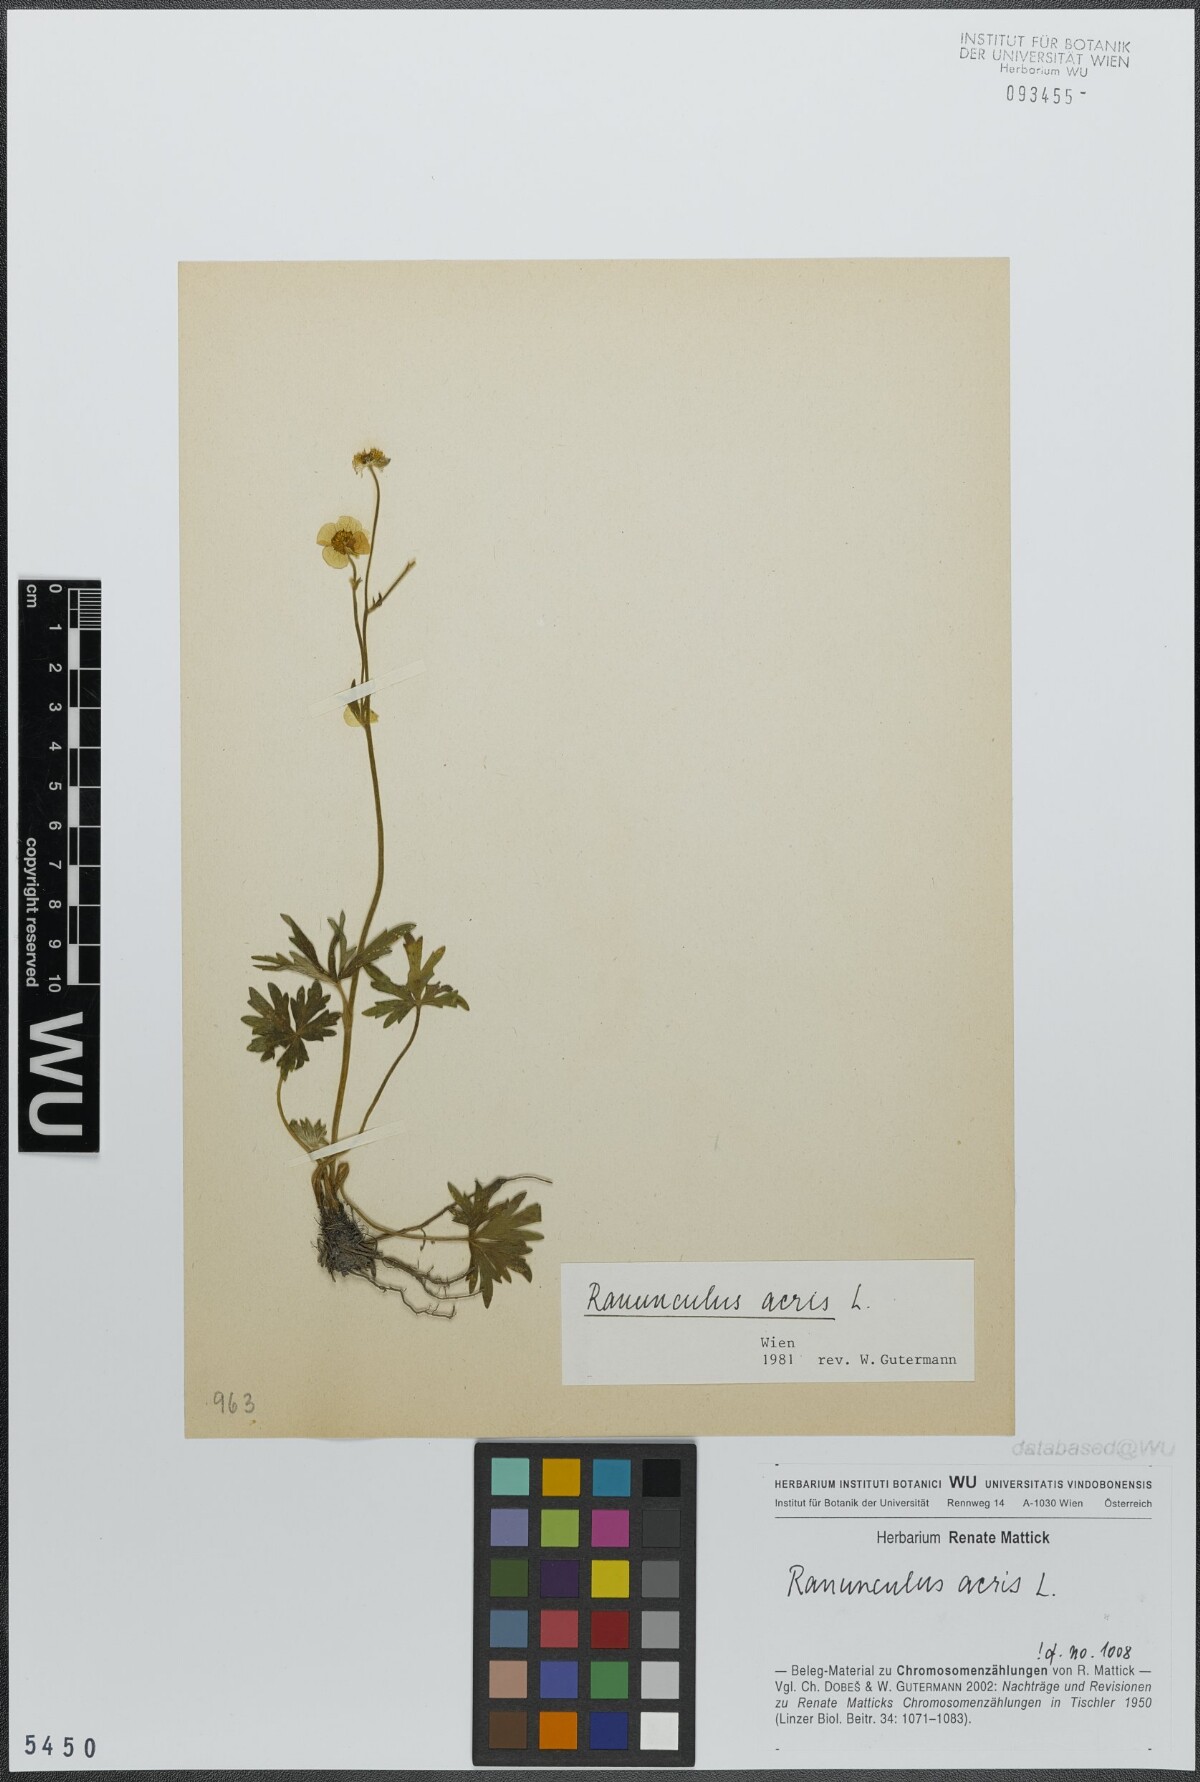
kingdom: Plantae
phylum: Tracheophyta
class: Magnoliopsida
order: Ranunculales
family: Ranunculaceae
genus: Ranunculus
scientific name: Ranunculus acris
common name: Meadow buttercup
